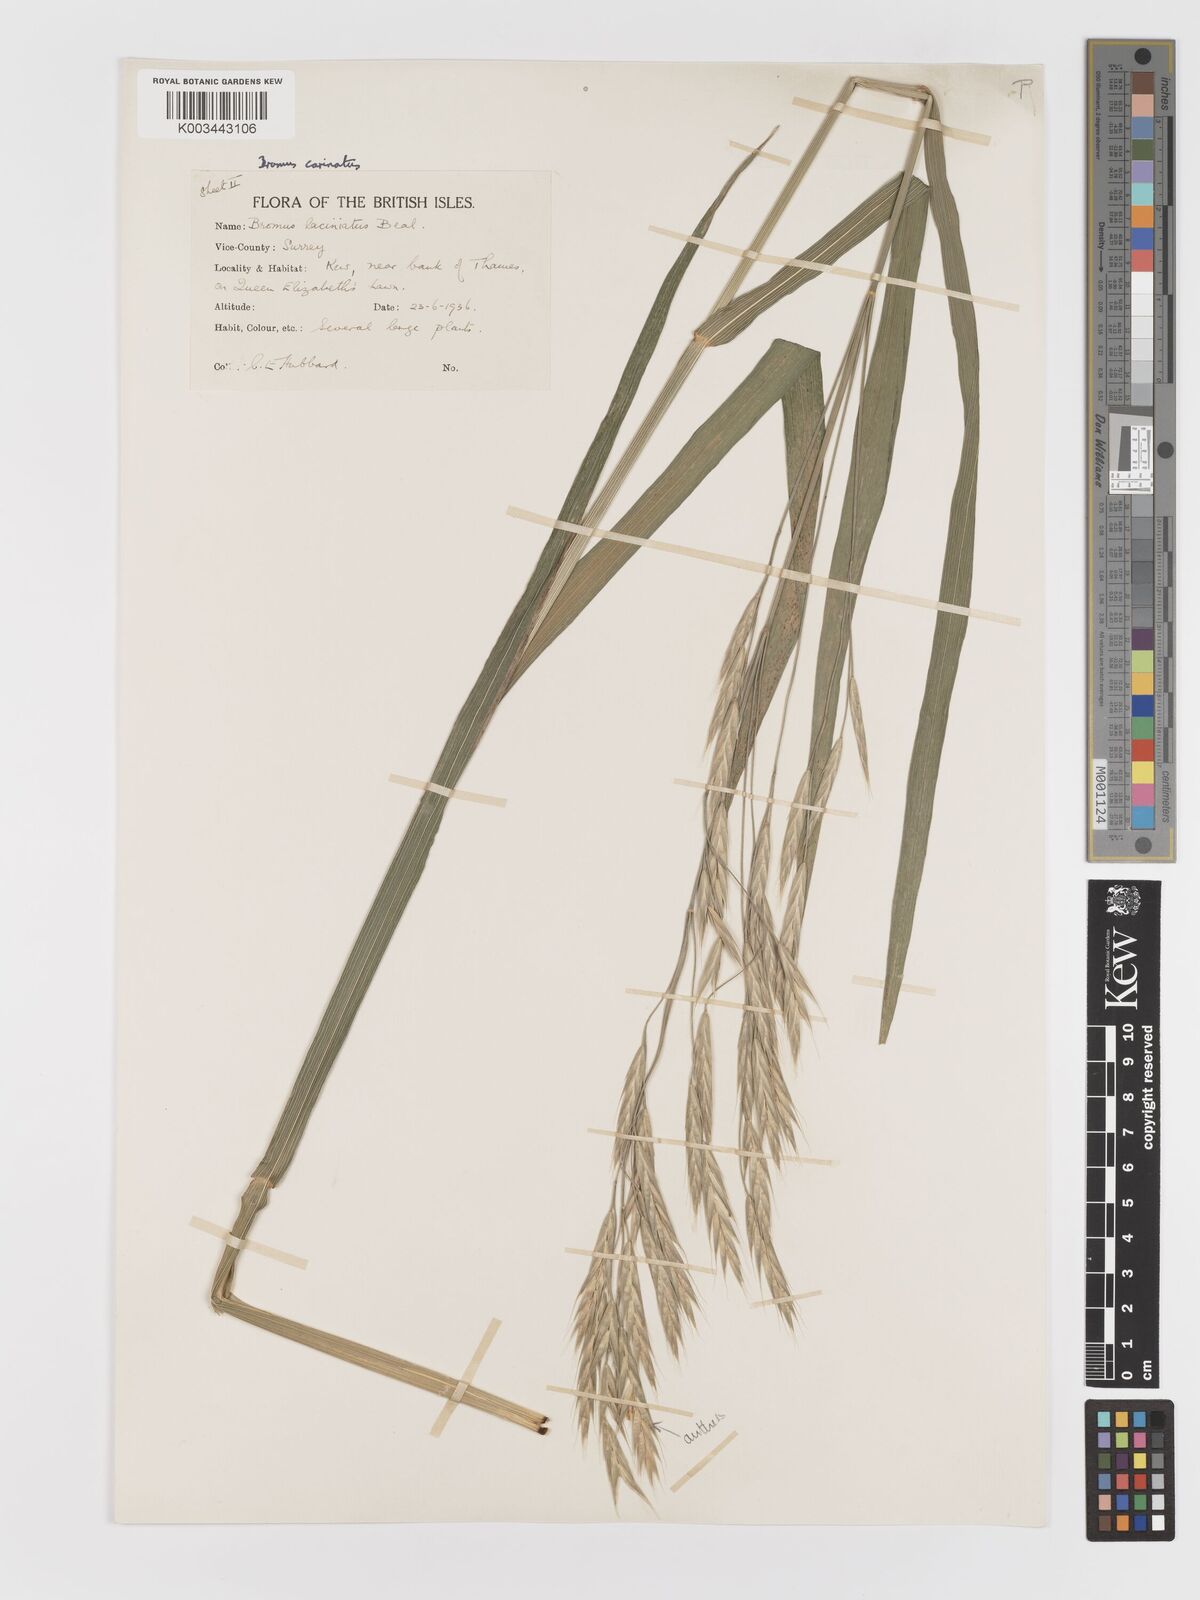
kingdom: Plantae
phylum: Tracheophyta
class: Liliopsida
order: Poales
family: Poaceae
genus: Bromus
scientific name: Bromus carinatus
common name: Mountain brome
